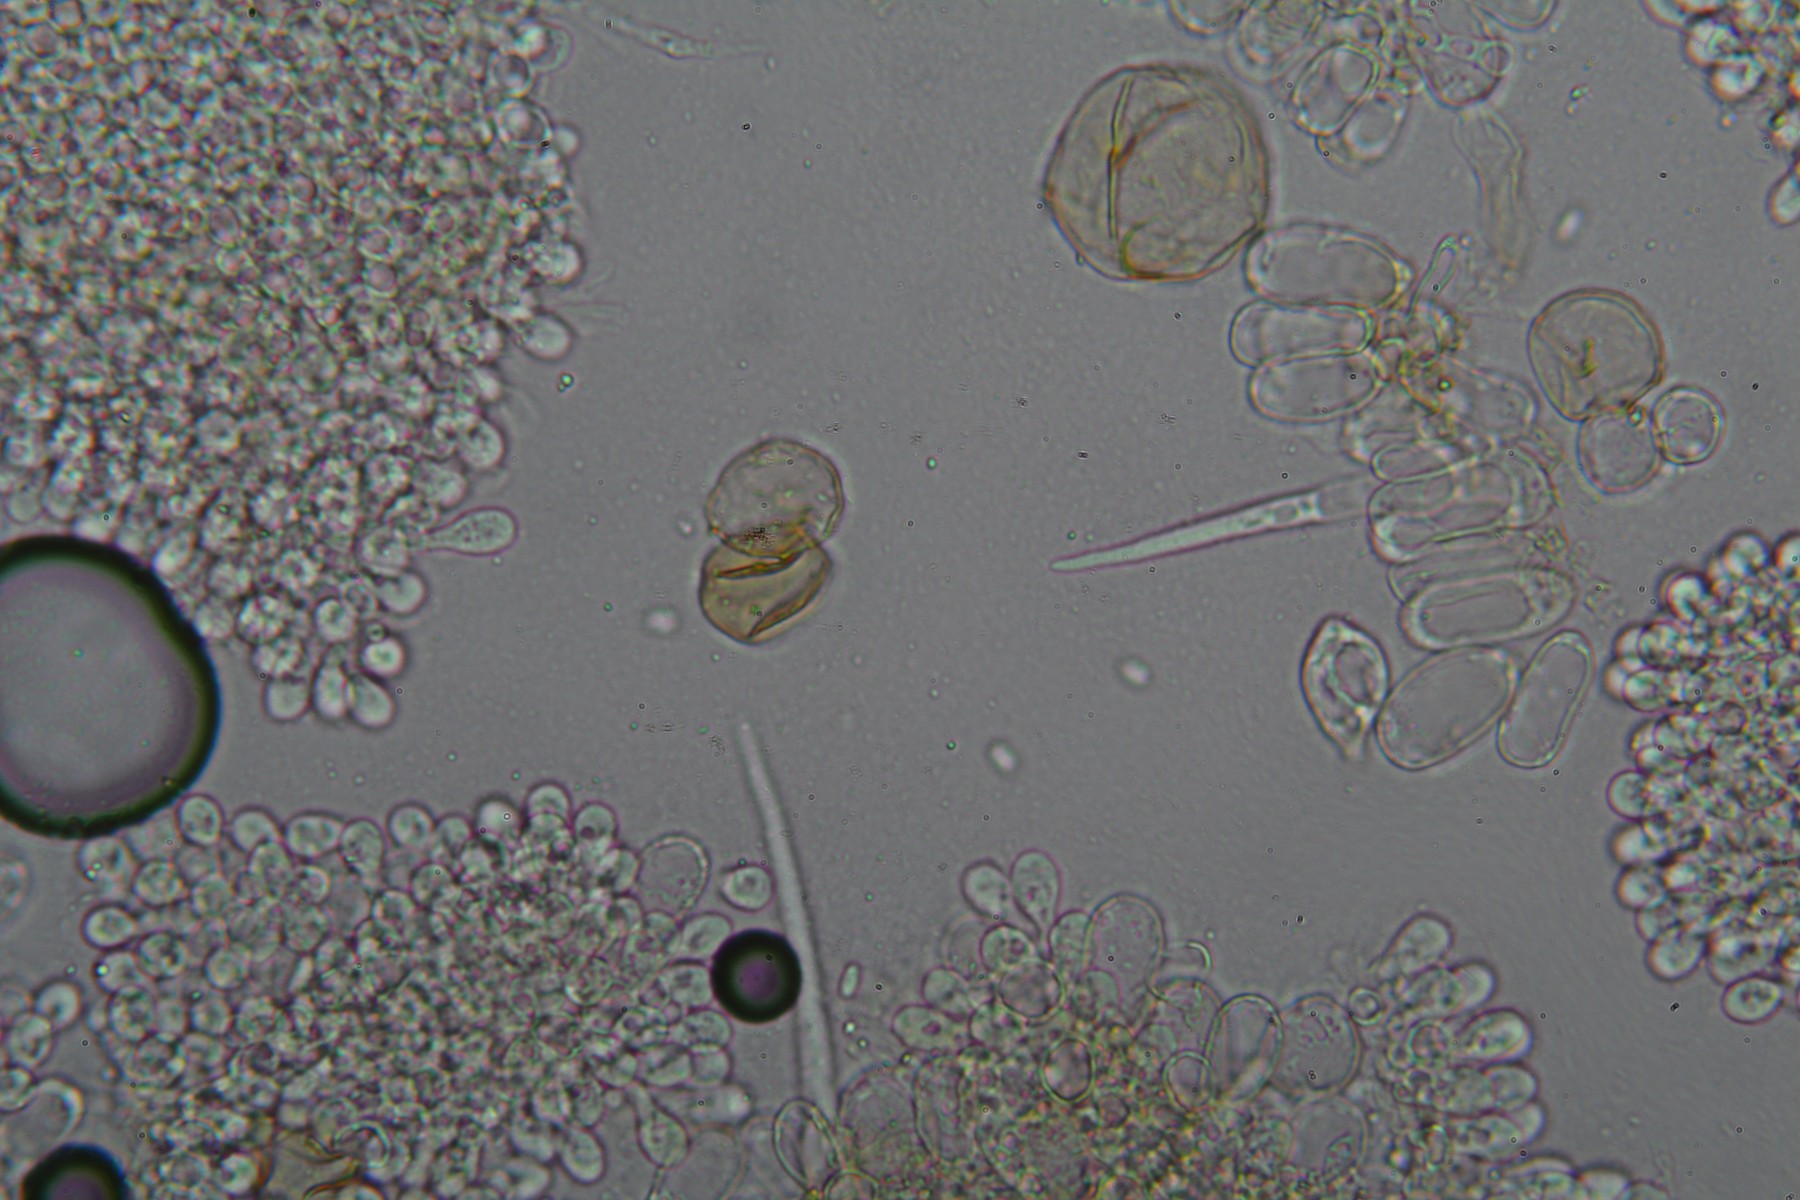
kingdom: Fungi
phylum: Basidiomycota
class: Agaricomycetes
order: Agaricales
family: Psathyrellaceae
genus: Coprinellus
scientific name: Coprinellus heptemerus
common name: hjorte-blækhat
